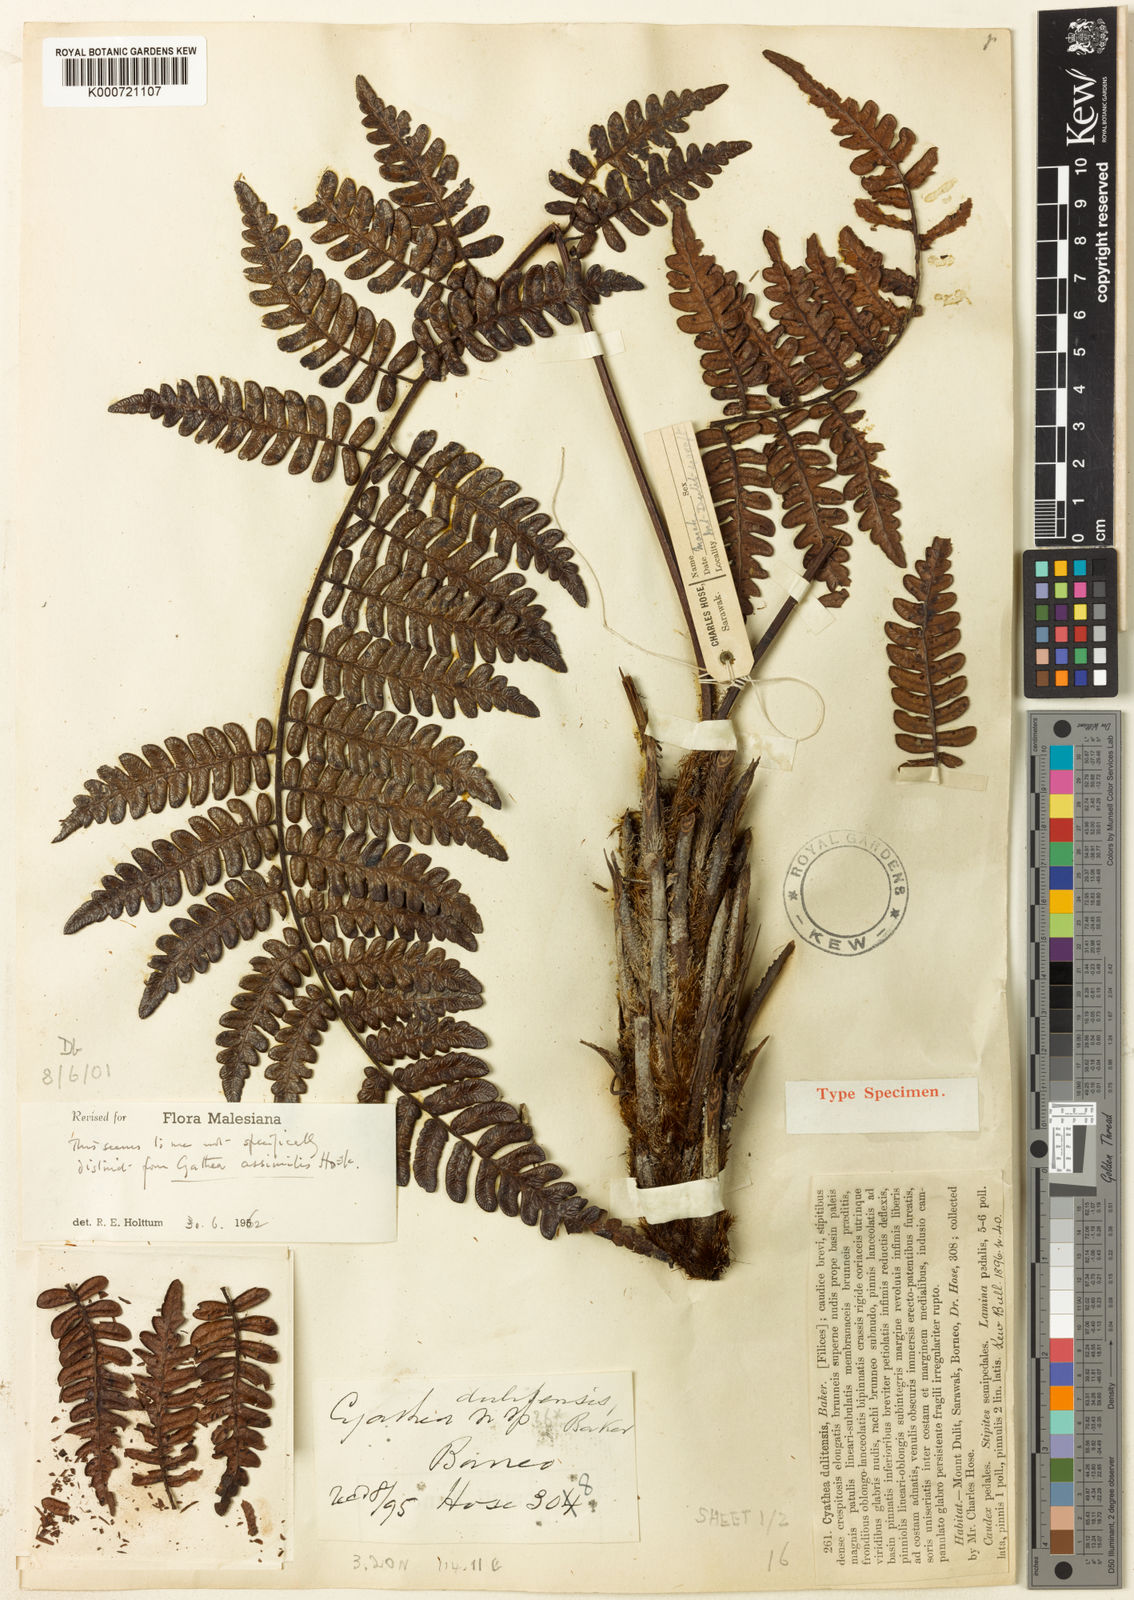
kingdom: Plantae
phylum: Tracheophyta
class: Polypodiopsida
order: Cyatheales
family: Cyatheaceae
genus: Sphaeropteris
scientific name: Sphaeropteris assimilis
